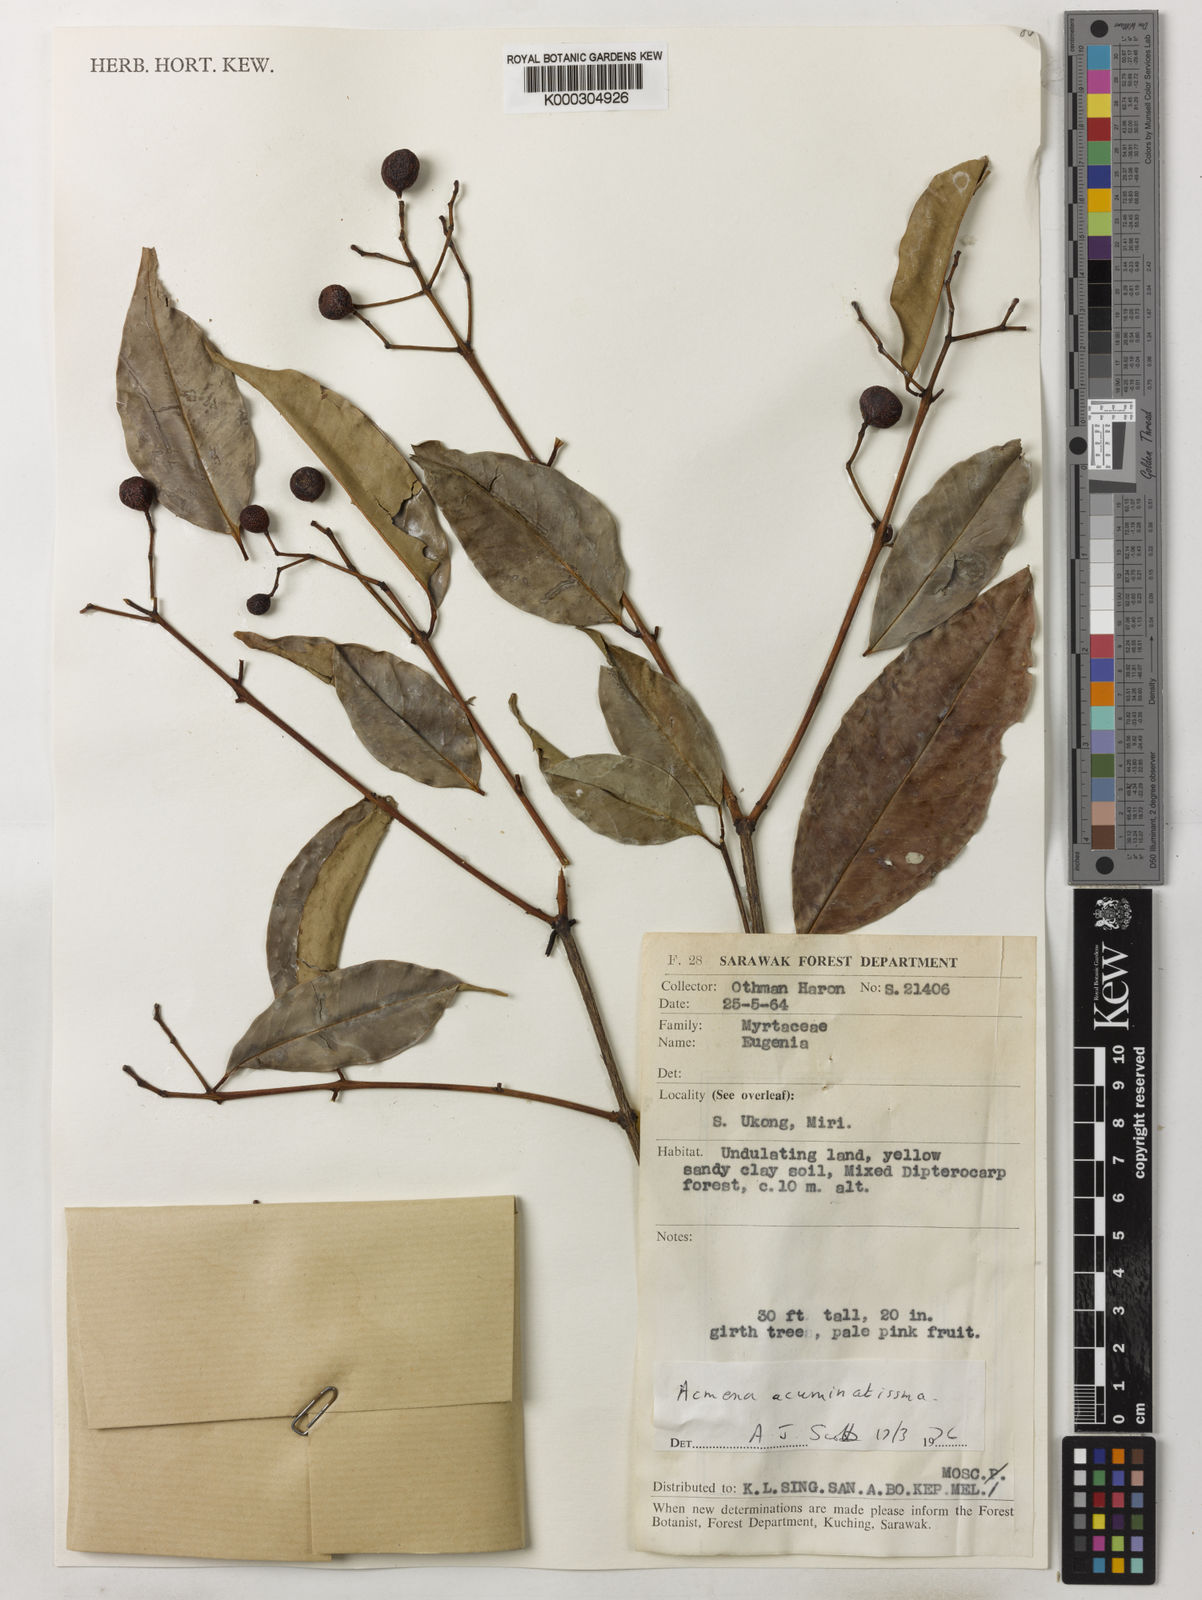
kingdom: Plantae
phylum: Tracheophyta
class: Magnoliopsida
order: Myrtales
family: Myrtaceae
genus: Syzygium
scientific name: Syzygium acuminatissimum
